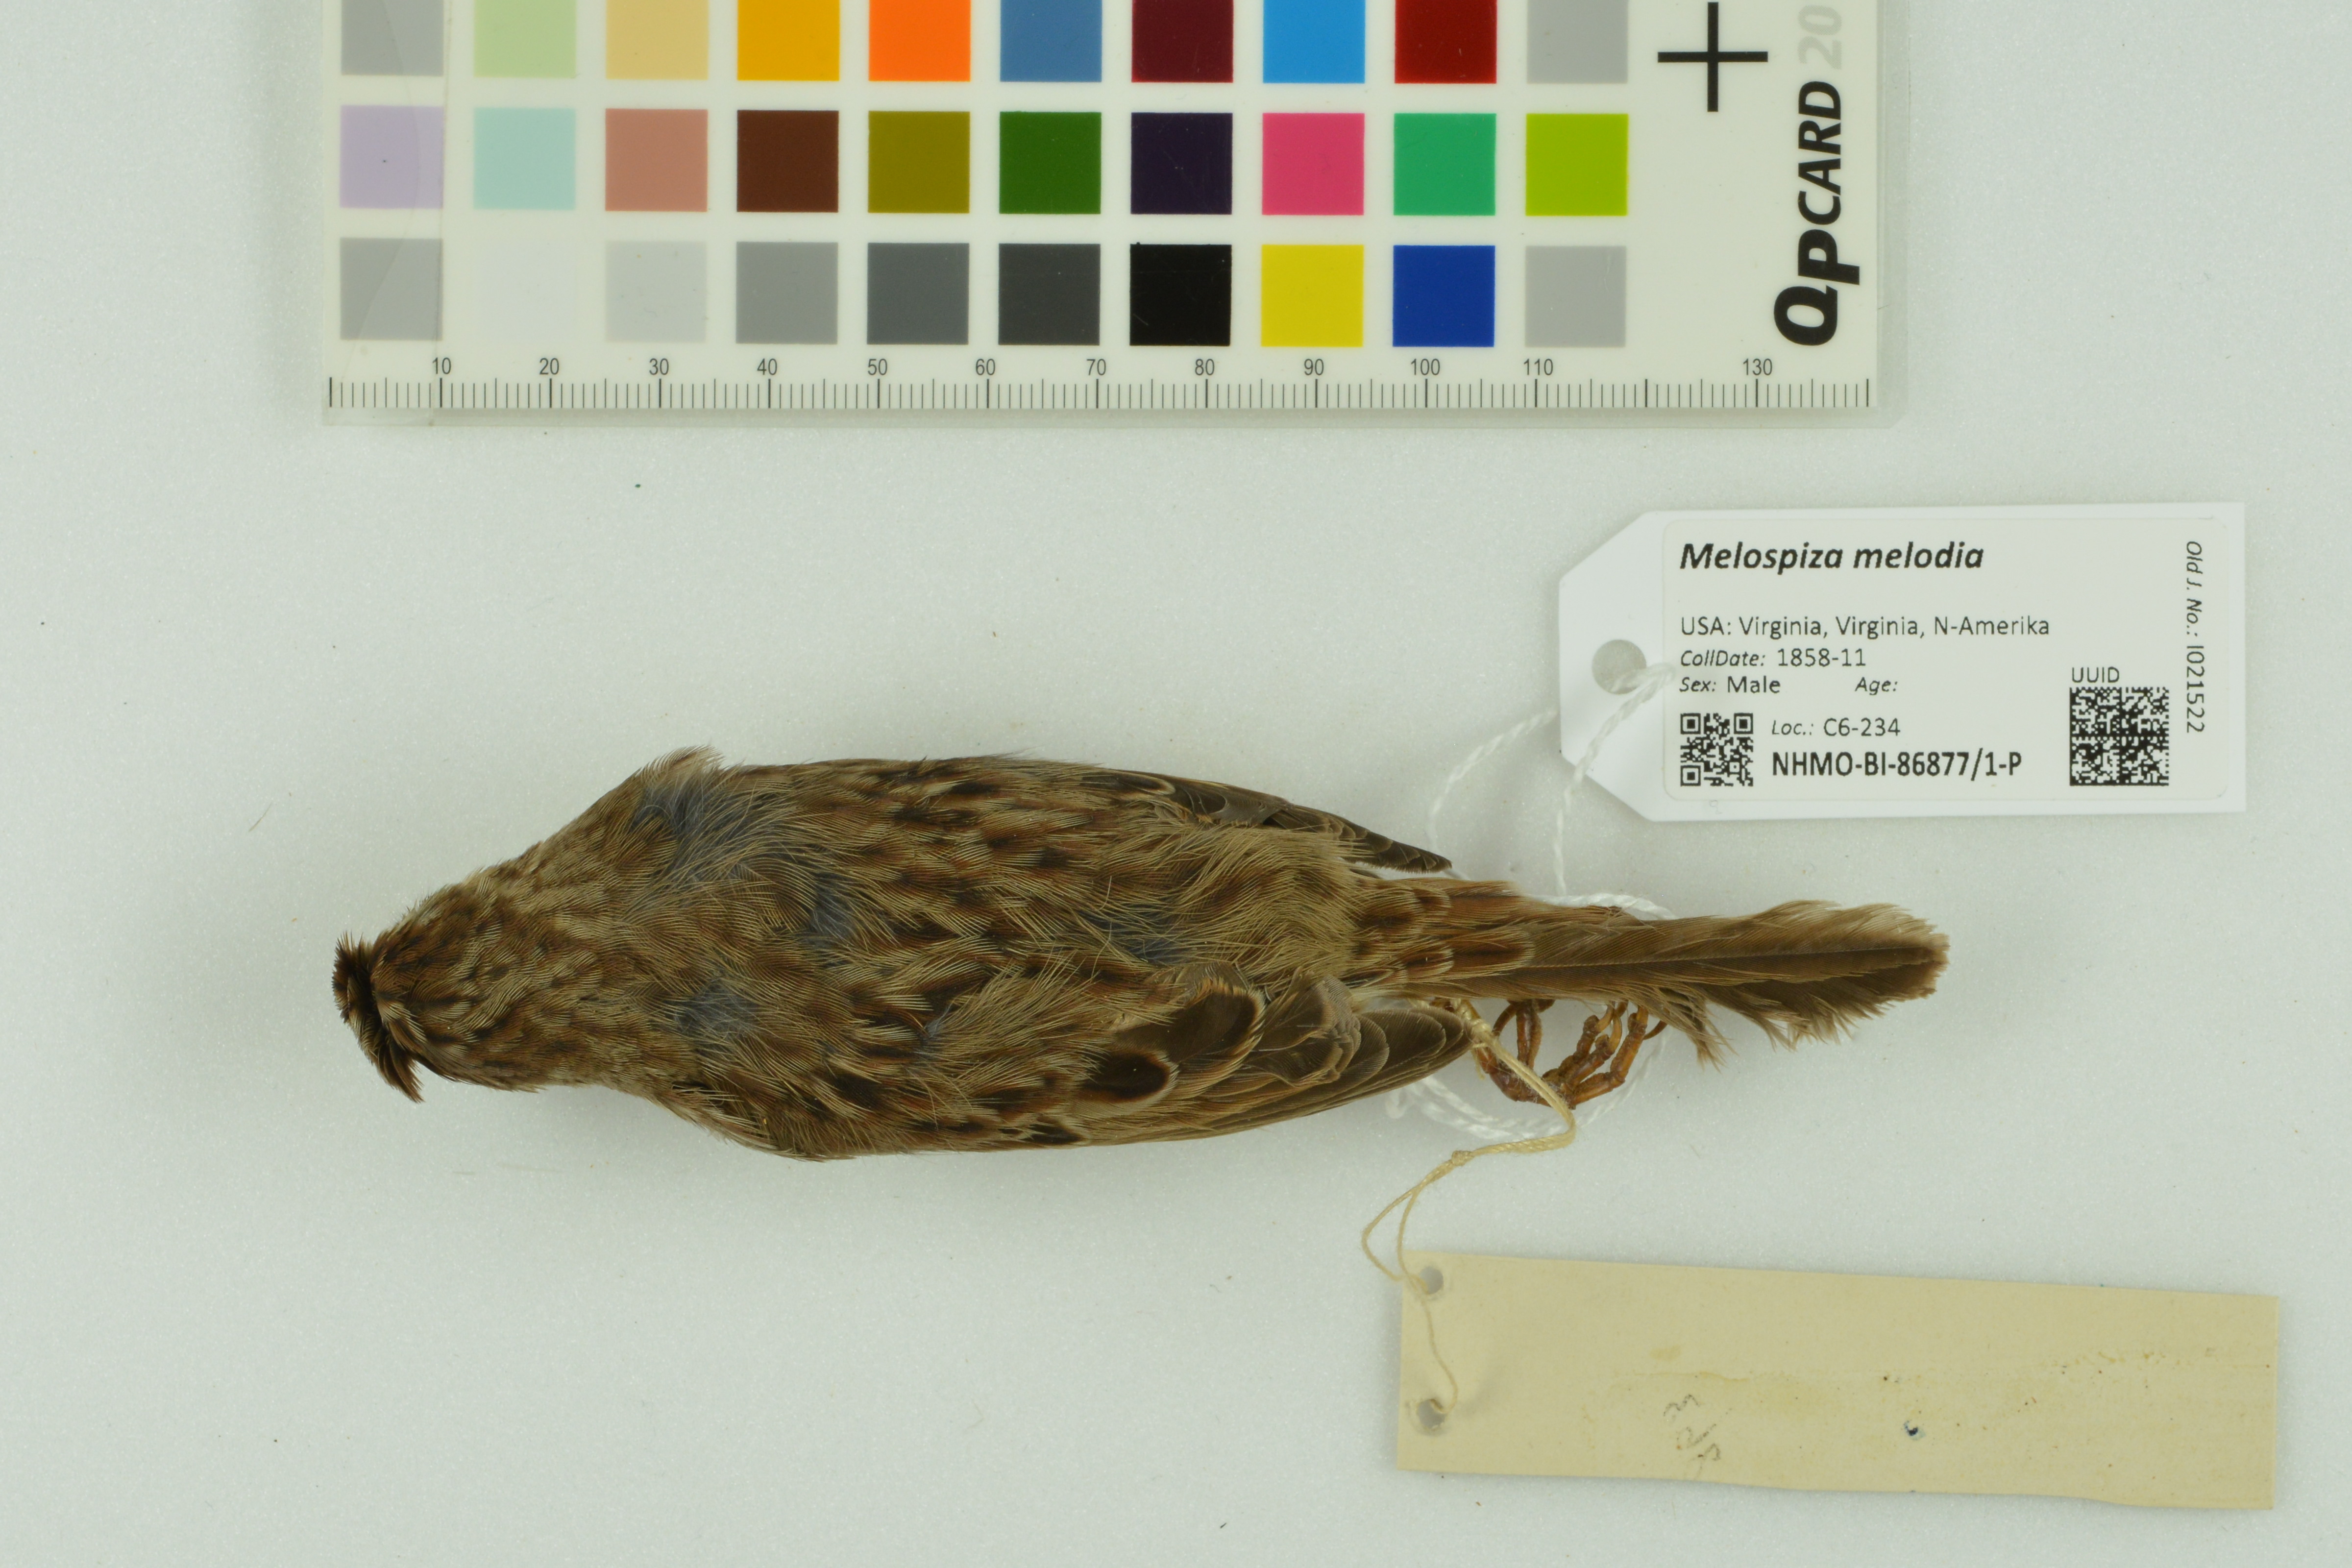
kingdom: Animalia
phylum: Chordata
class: Aves
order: Passeriformes
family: Passerellidae
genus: Melospiza
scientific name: Melospiza melodia
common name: Song sparrow
